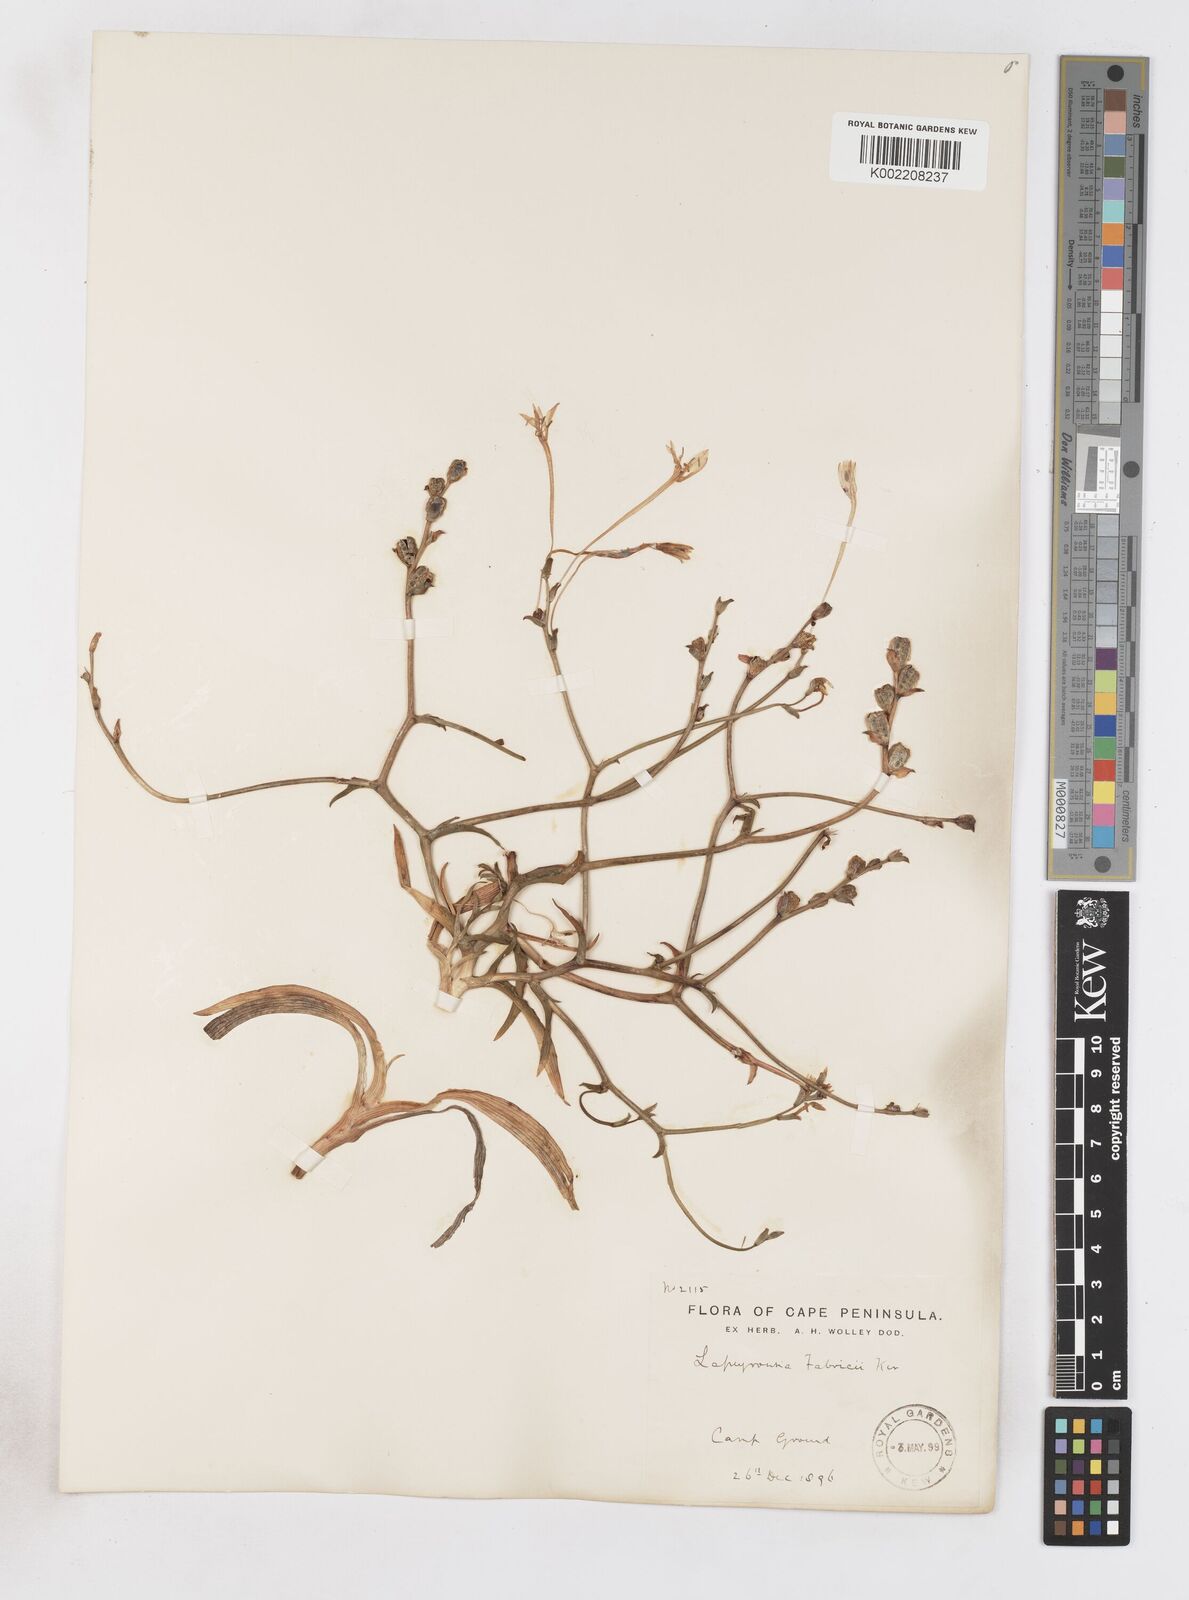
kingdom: Plantae
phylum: Tracheophyta
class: Liliopsida
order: Asparagales
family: Iridaceae
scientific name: Iridaceae
